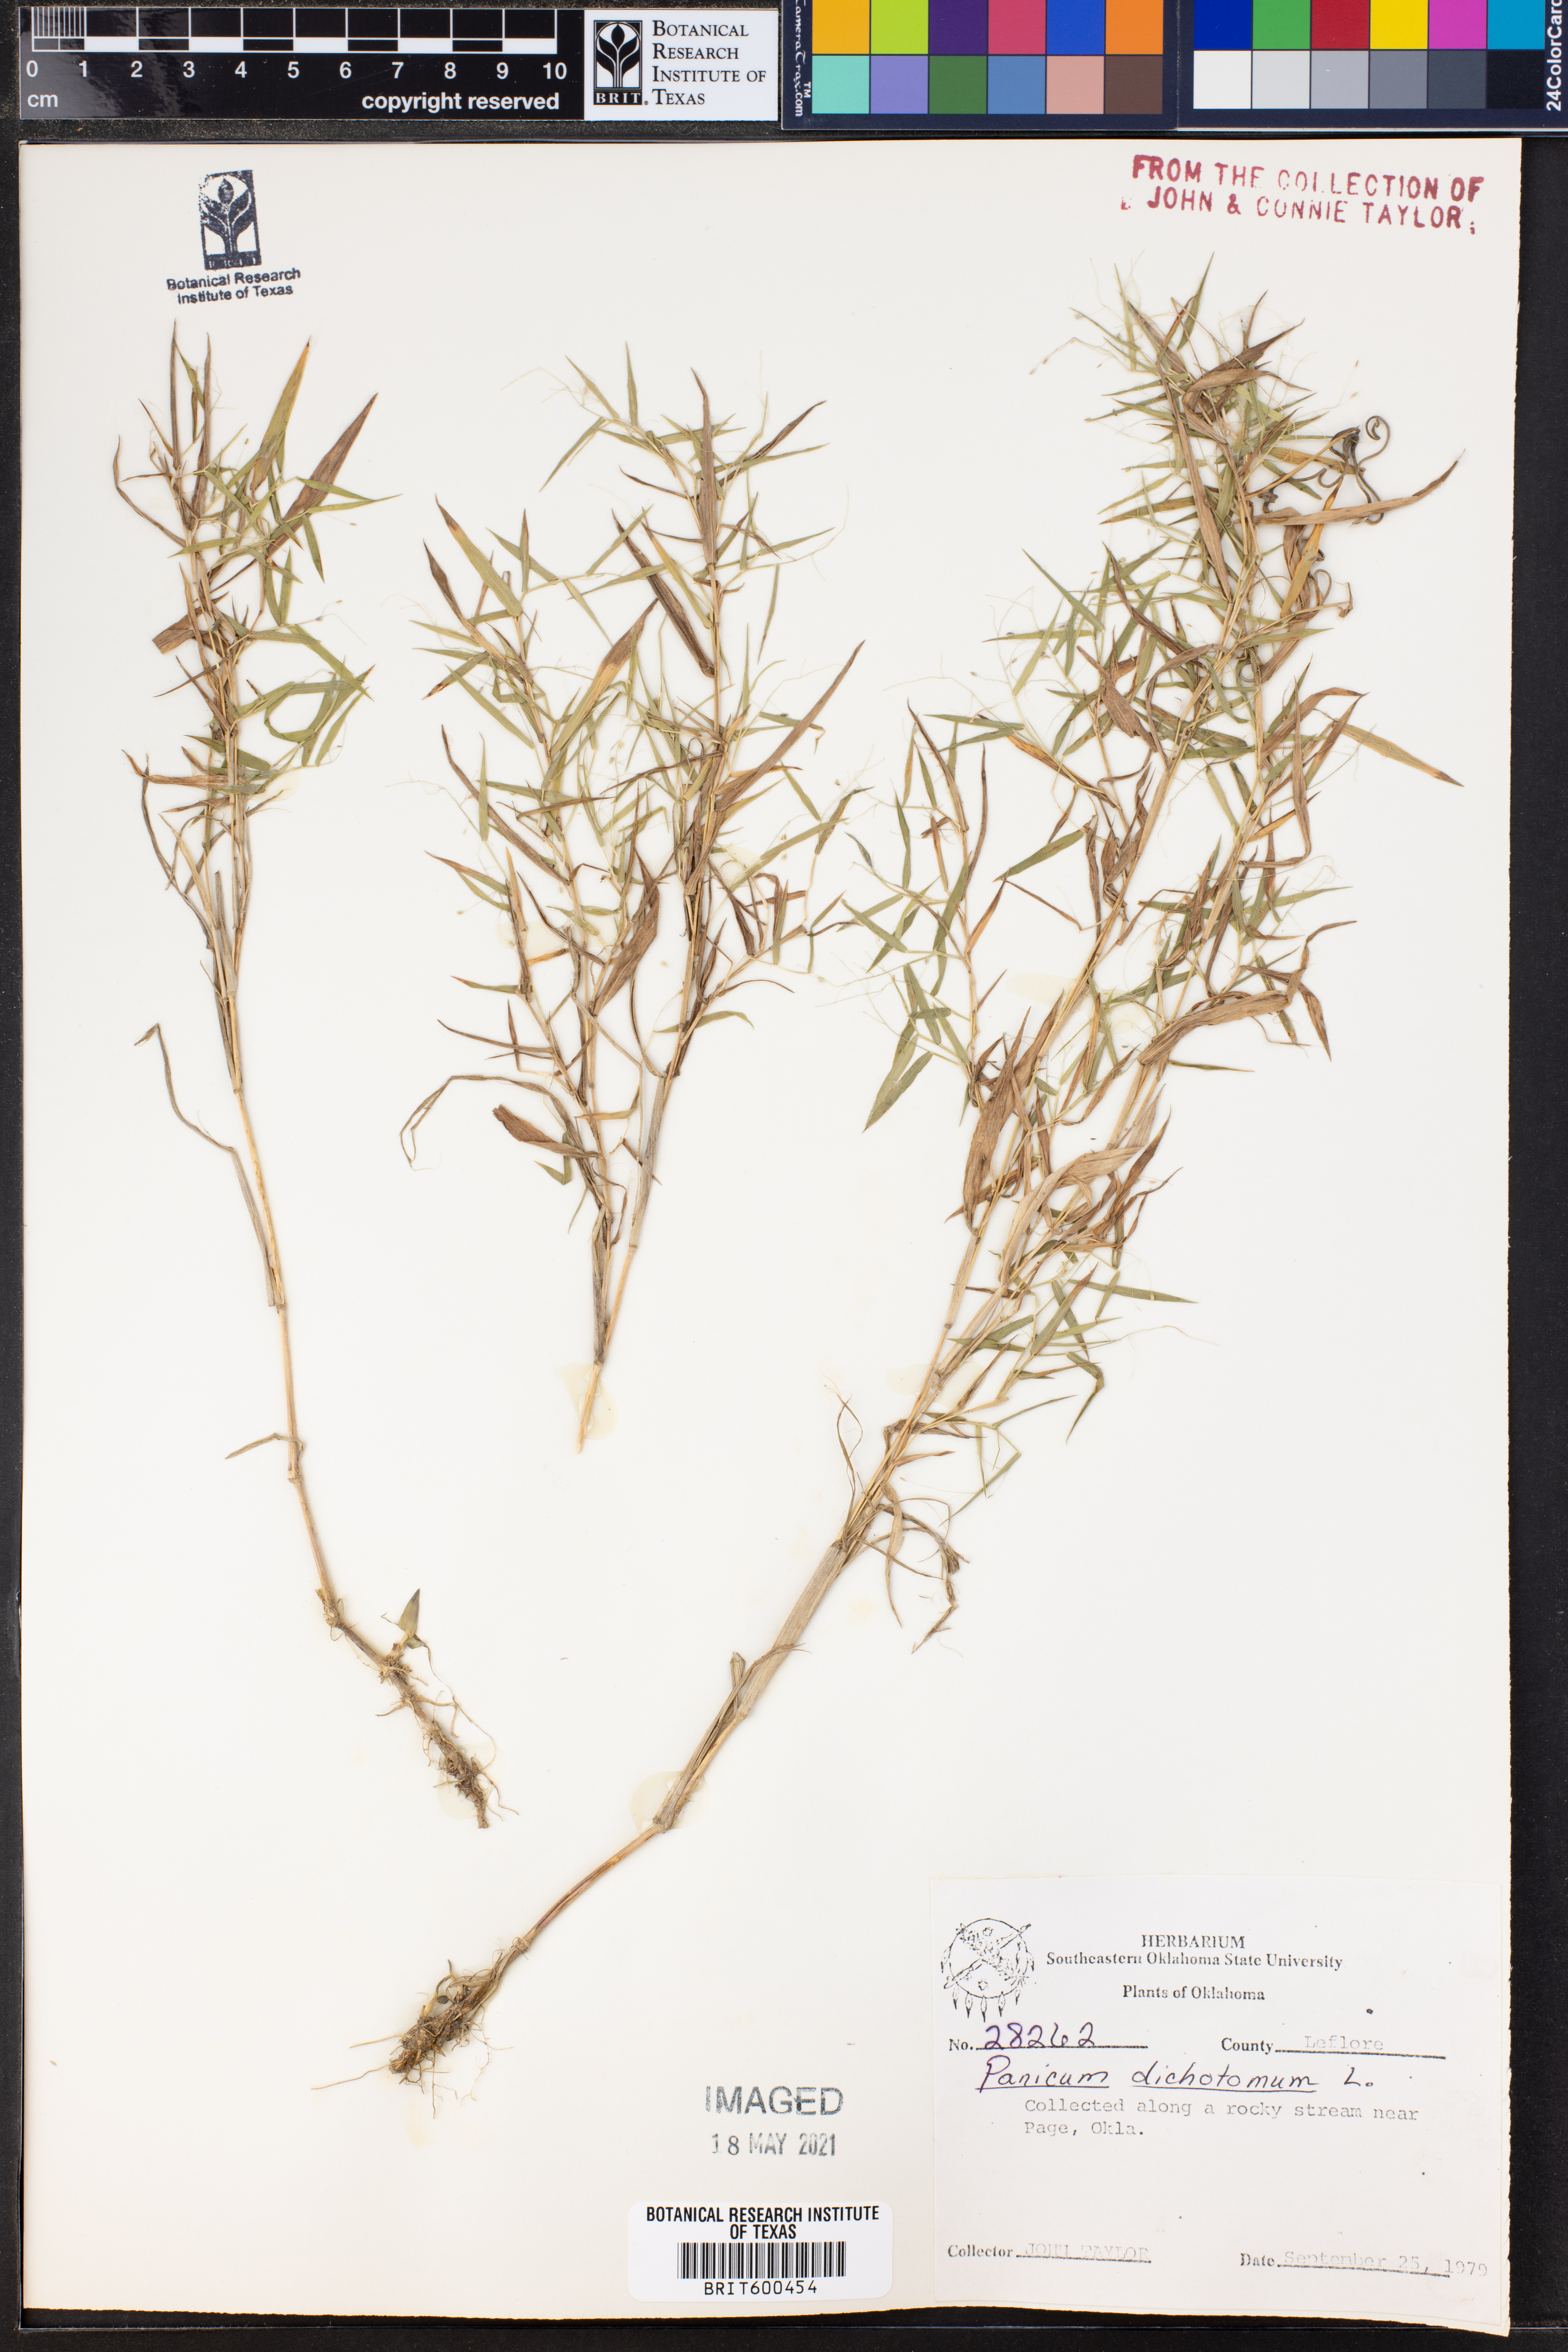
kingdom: Plantae
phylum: Tracheophyta
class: Liliopsida
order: Poales
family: Poaceae
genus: Dichanthelium
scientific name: Dichanthelium dichotomum
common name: Cypress panicgrass
